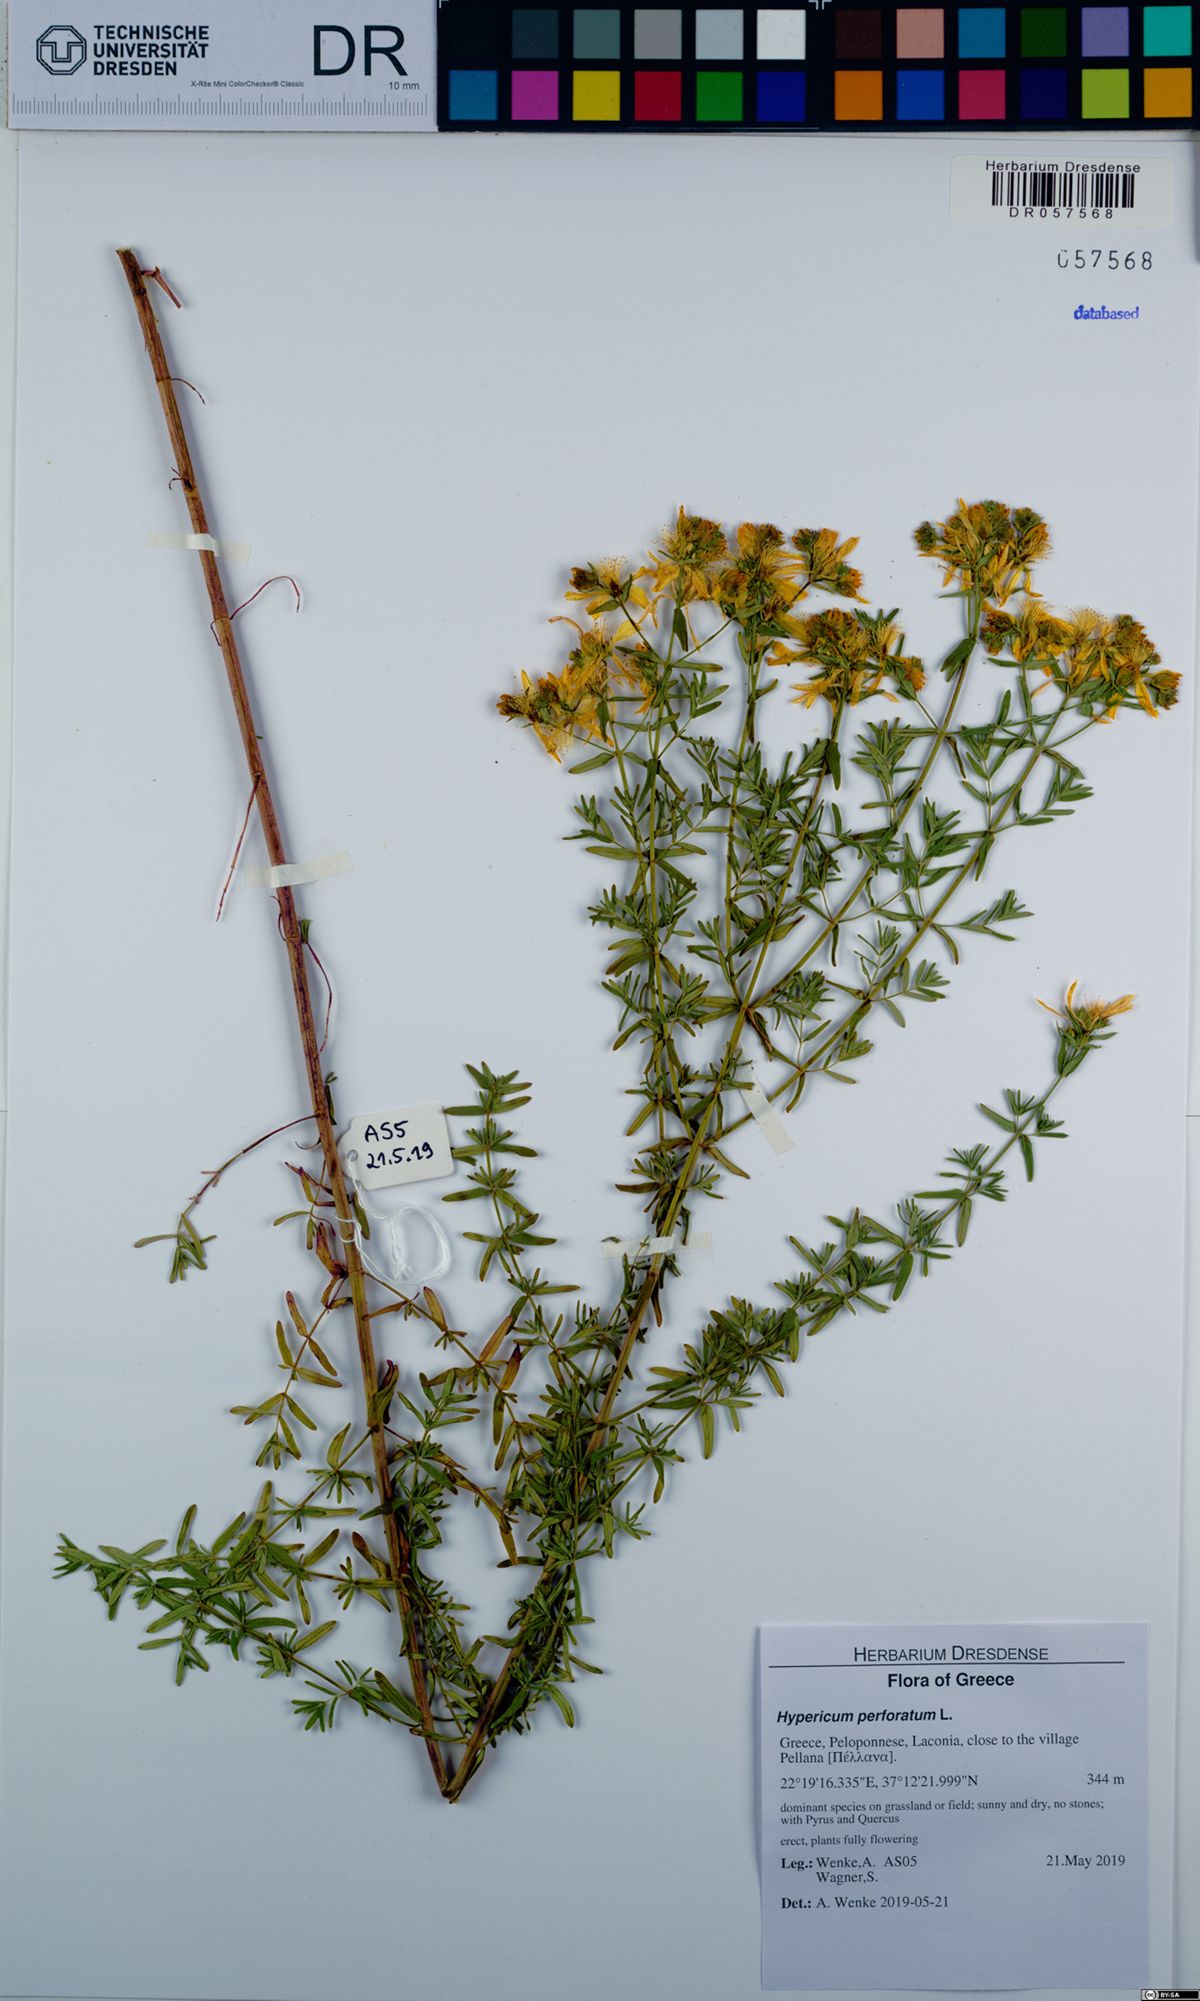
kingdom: Plantae
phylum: Tracheophyta
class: Magnoliopsida
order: Malpighiales
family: Hypericaceae
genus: Hypericum
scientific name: Hypericum perforatum
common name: Common st. johnswort
